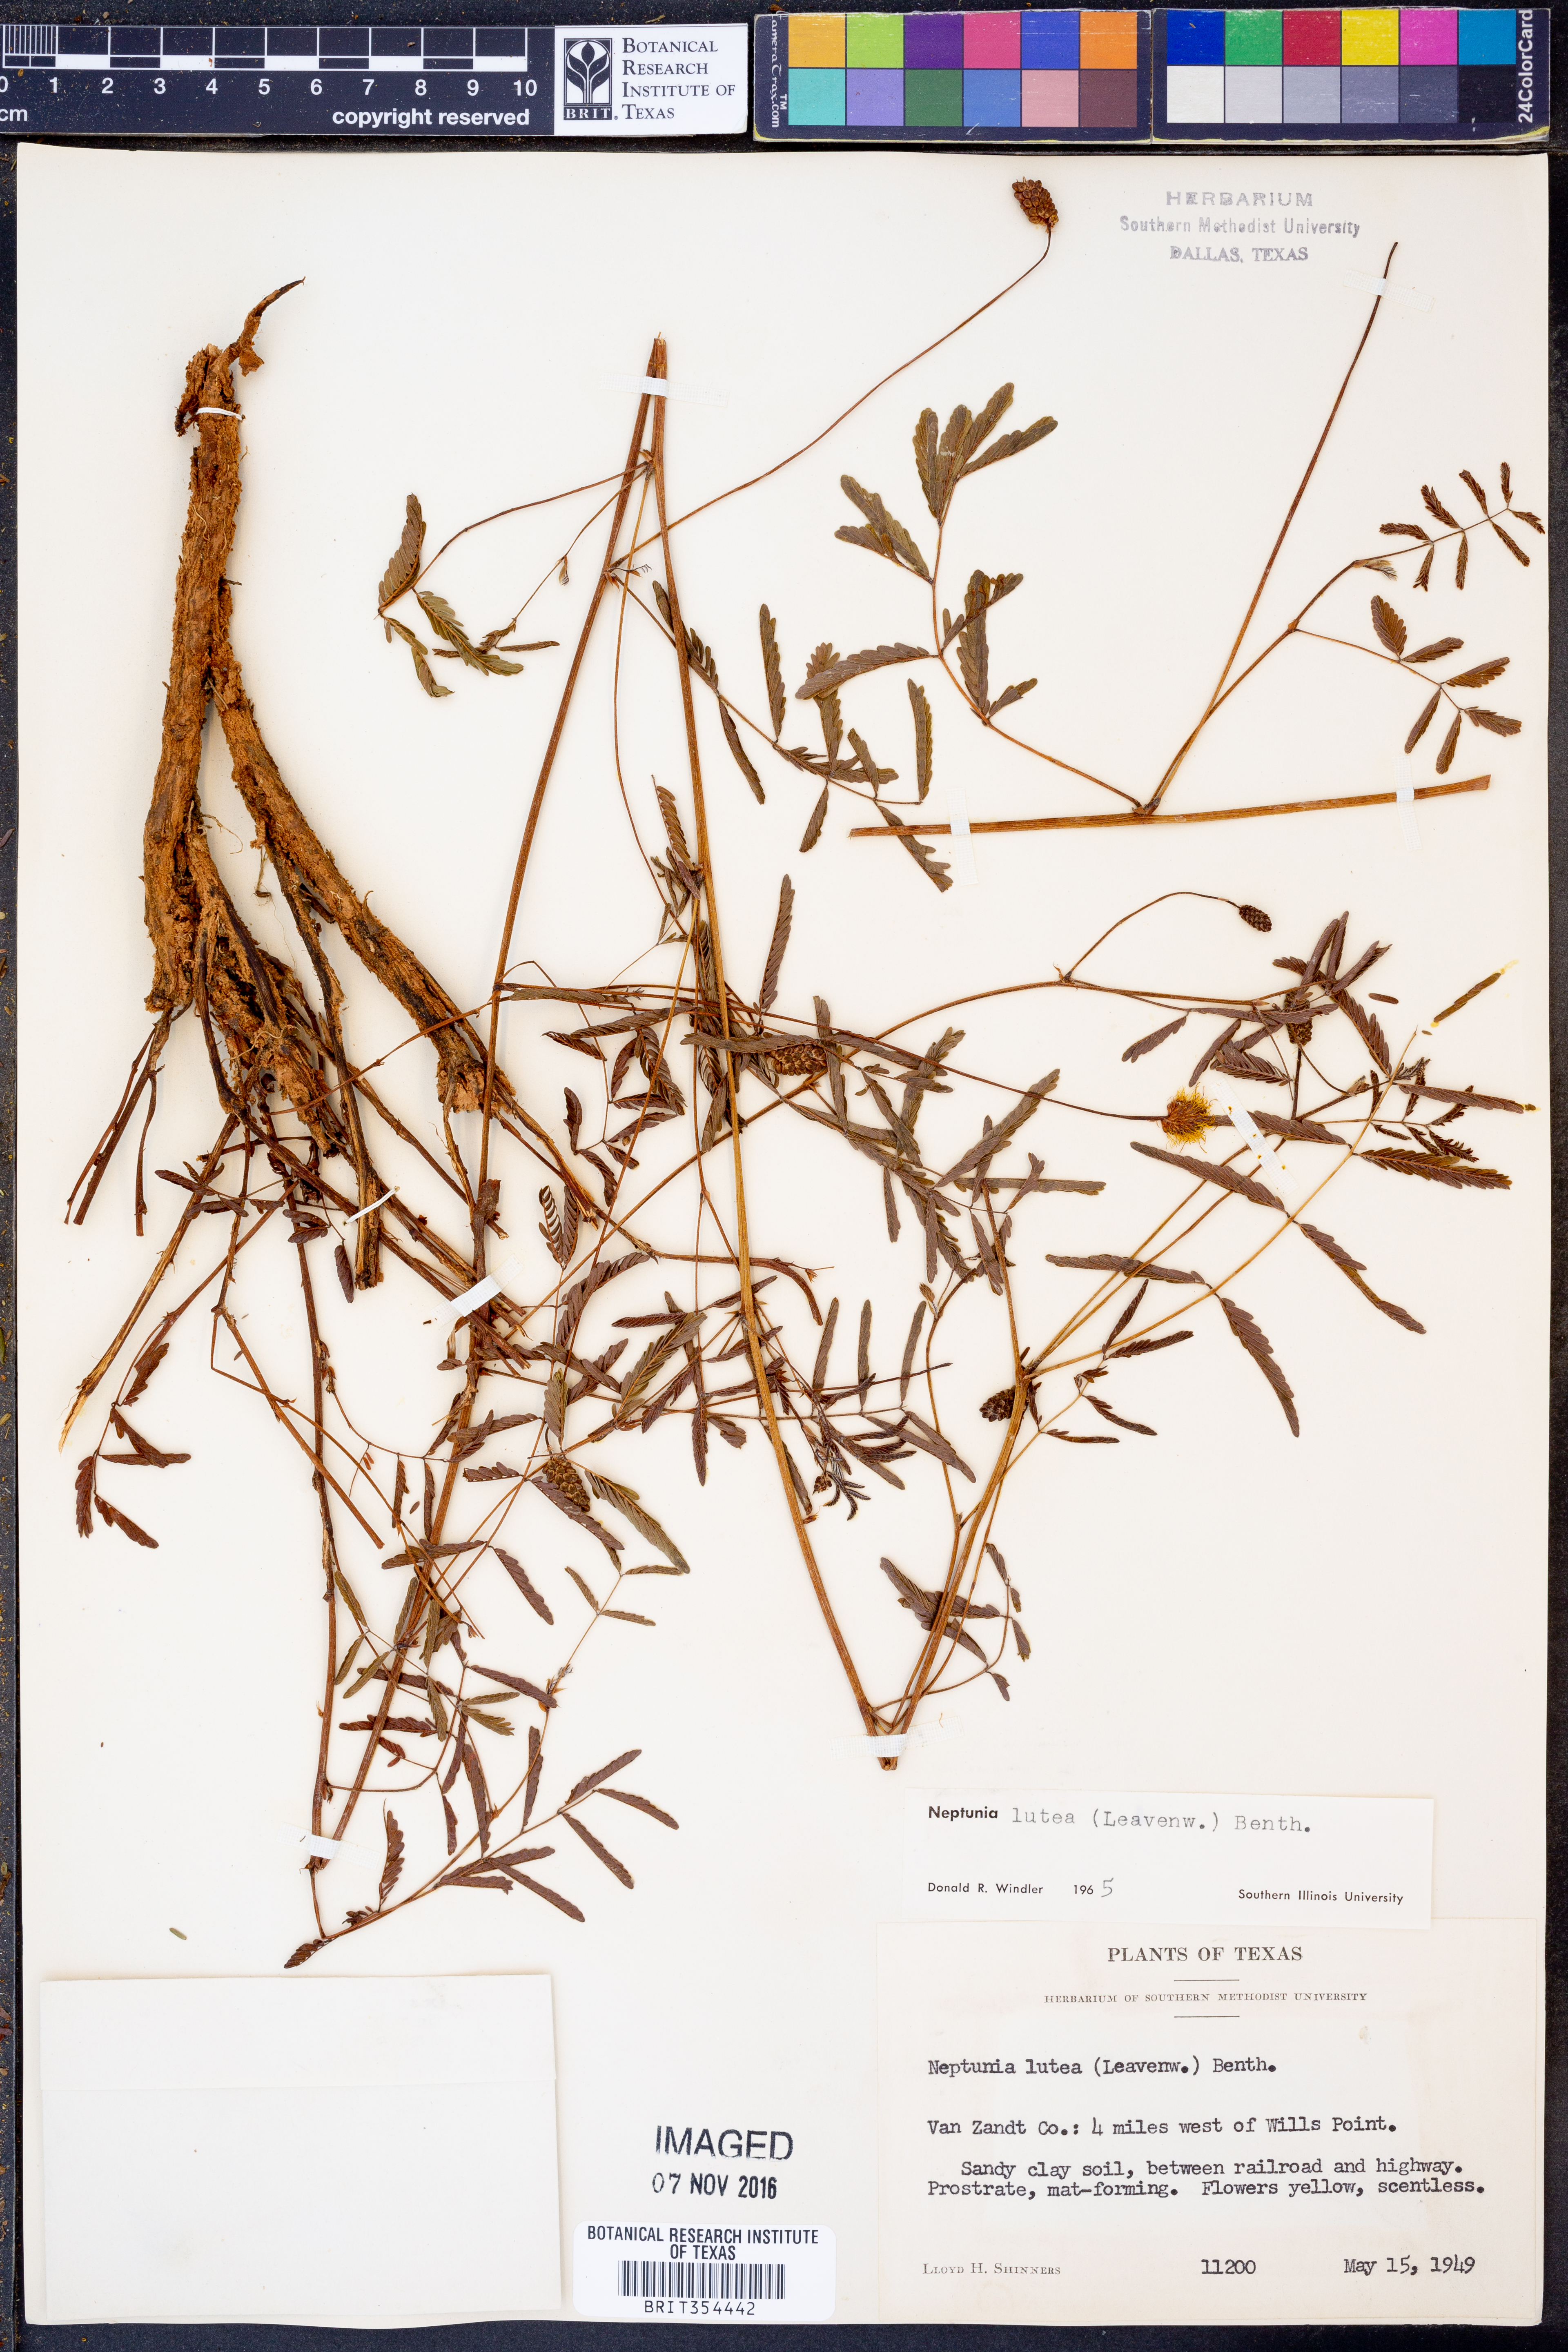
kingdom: Plantae
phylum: Tracheophyta
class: Magnoliopsida
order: Fabales
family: Fabaceae
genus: Neptunia
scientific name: Neptunia lutea
